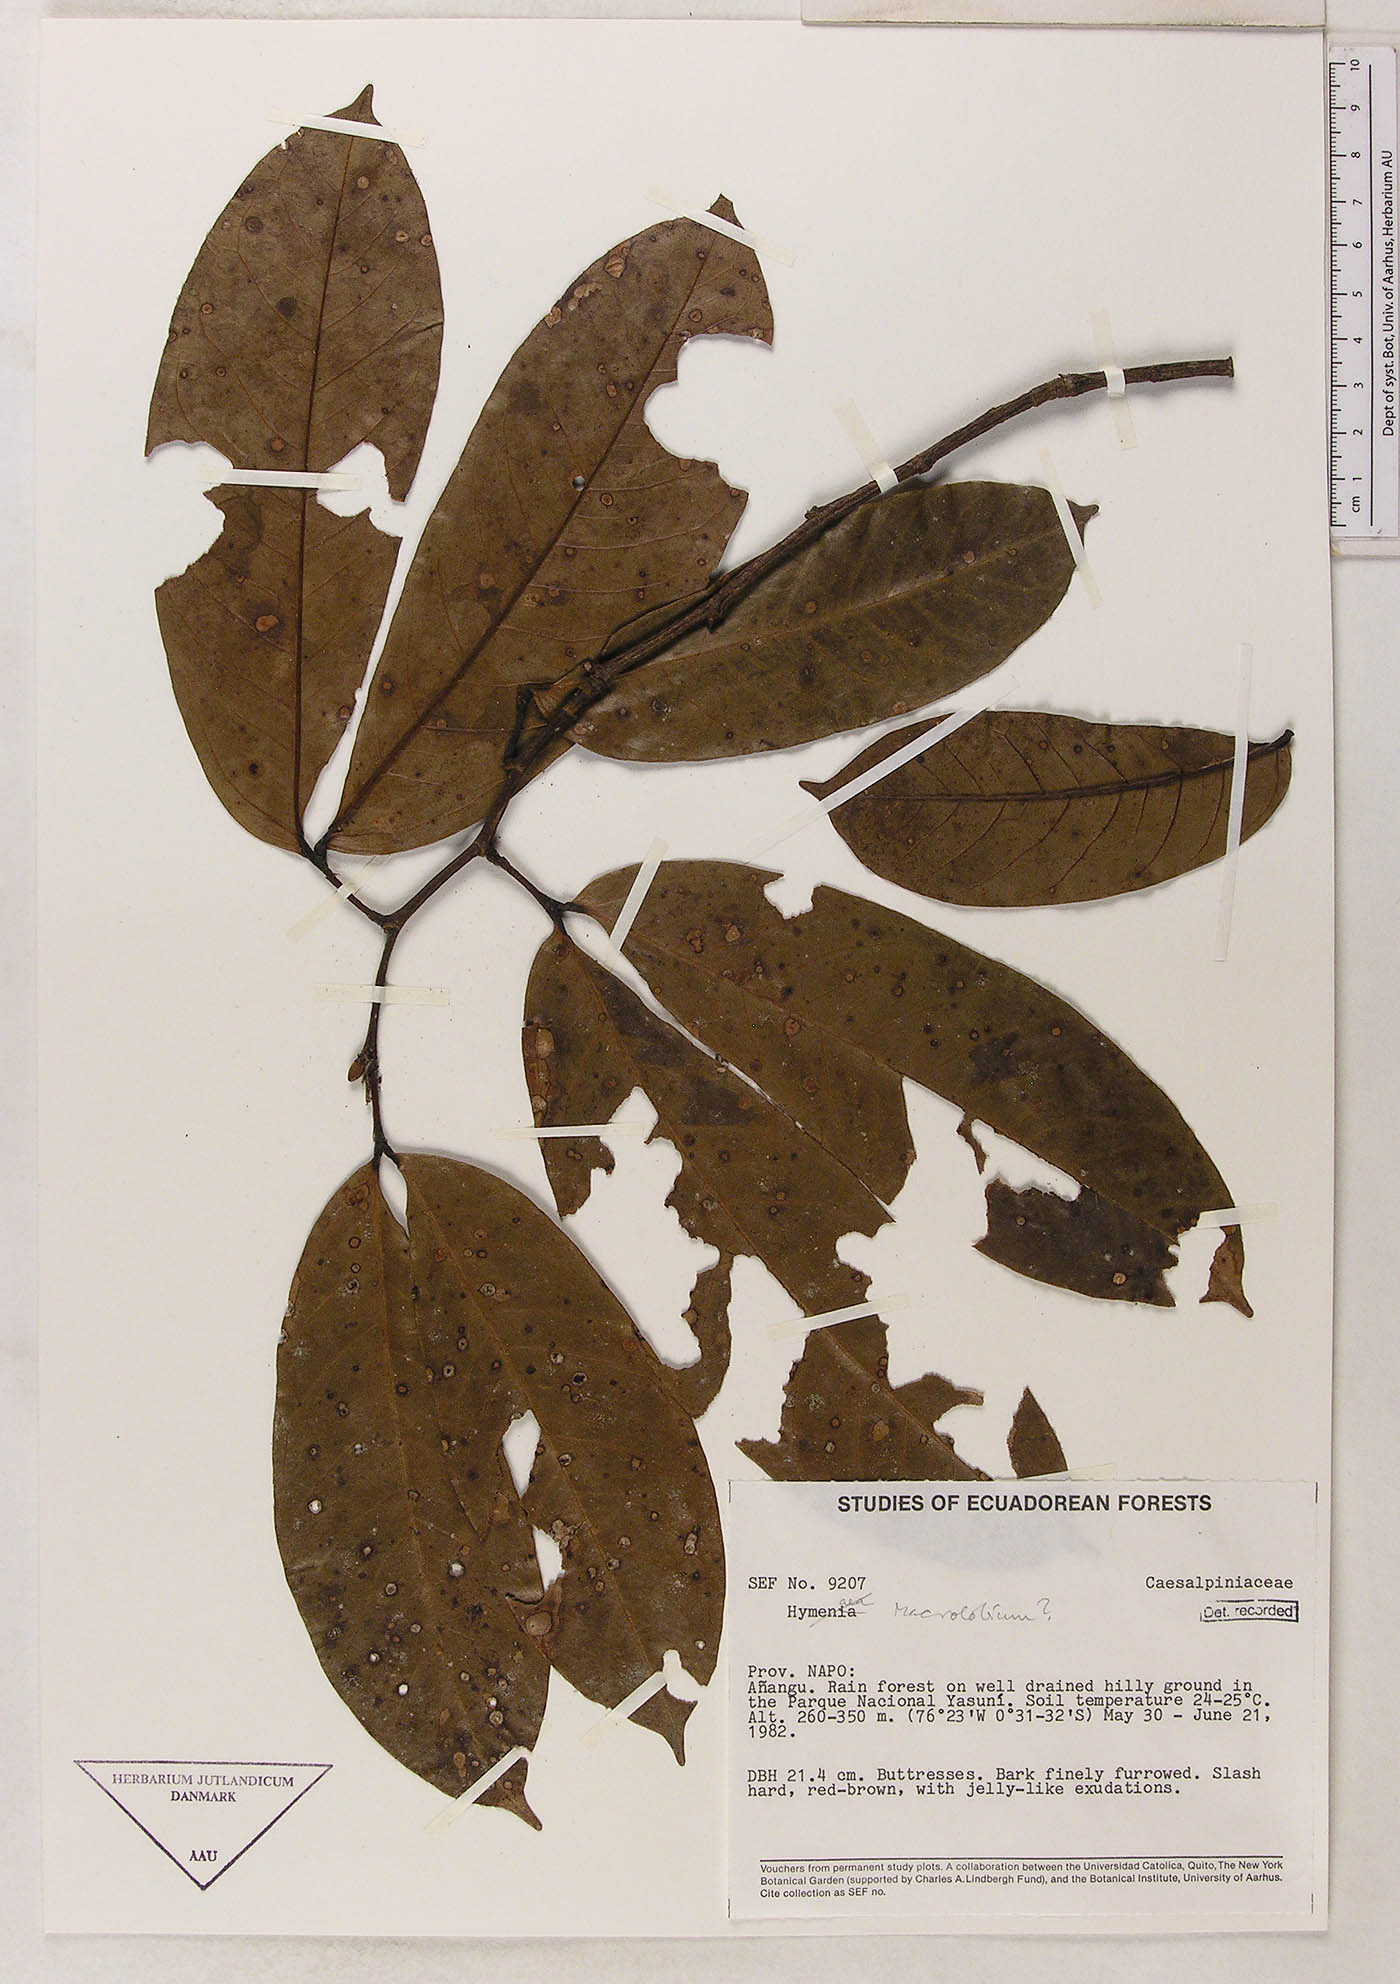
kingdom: Plantae
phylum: Tracheophyta
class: Magnoliopsida
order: Fabales
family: Fabaceae
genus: Macrolobium
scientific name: Macrolobium
